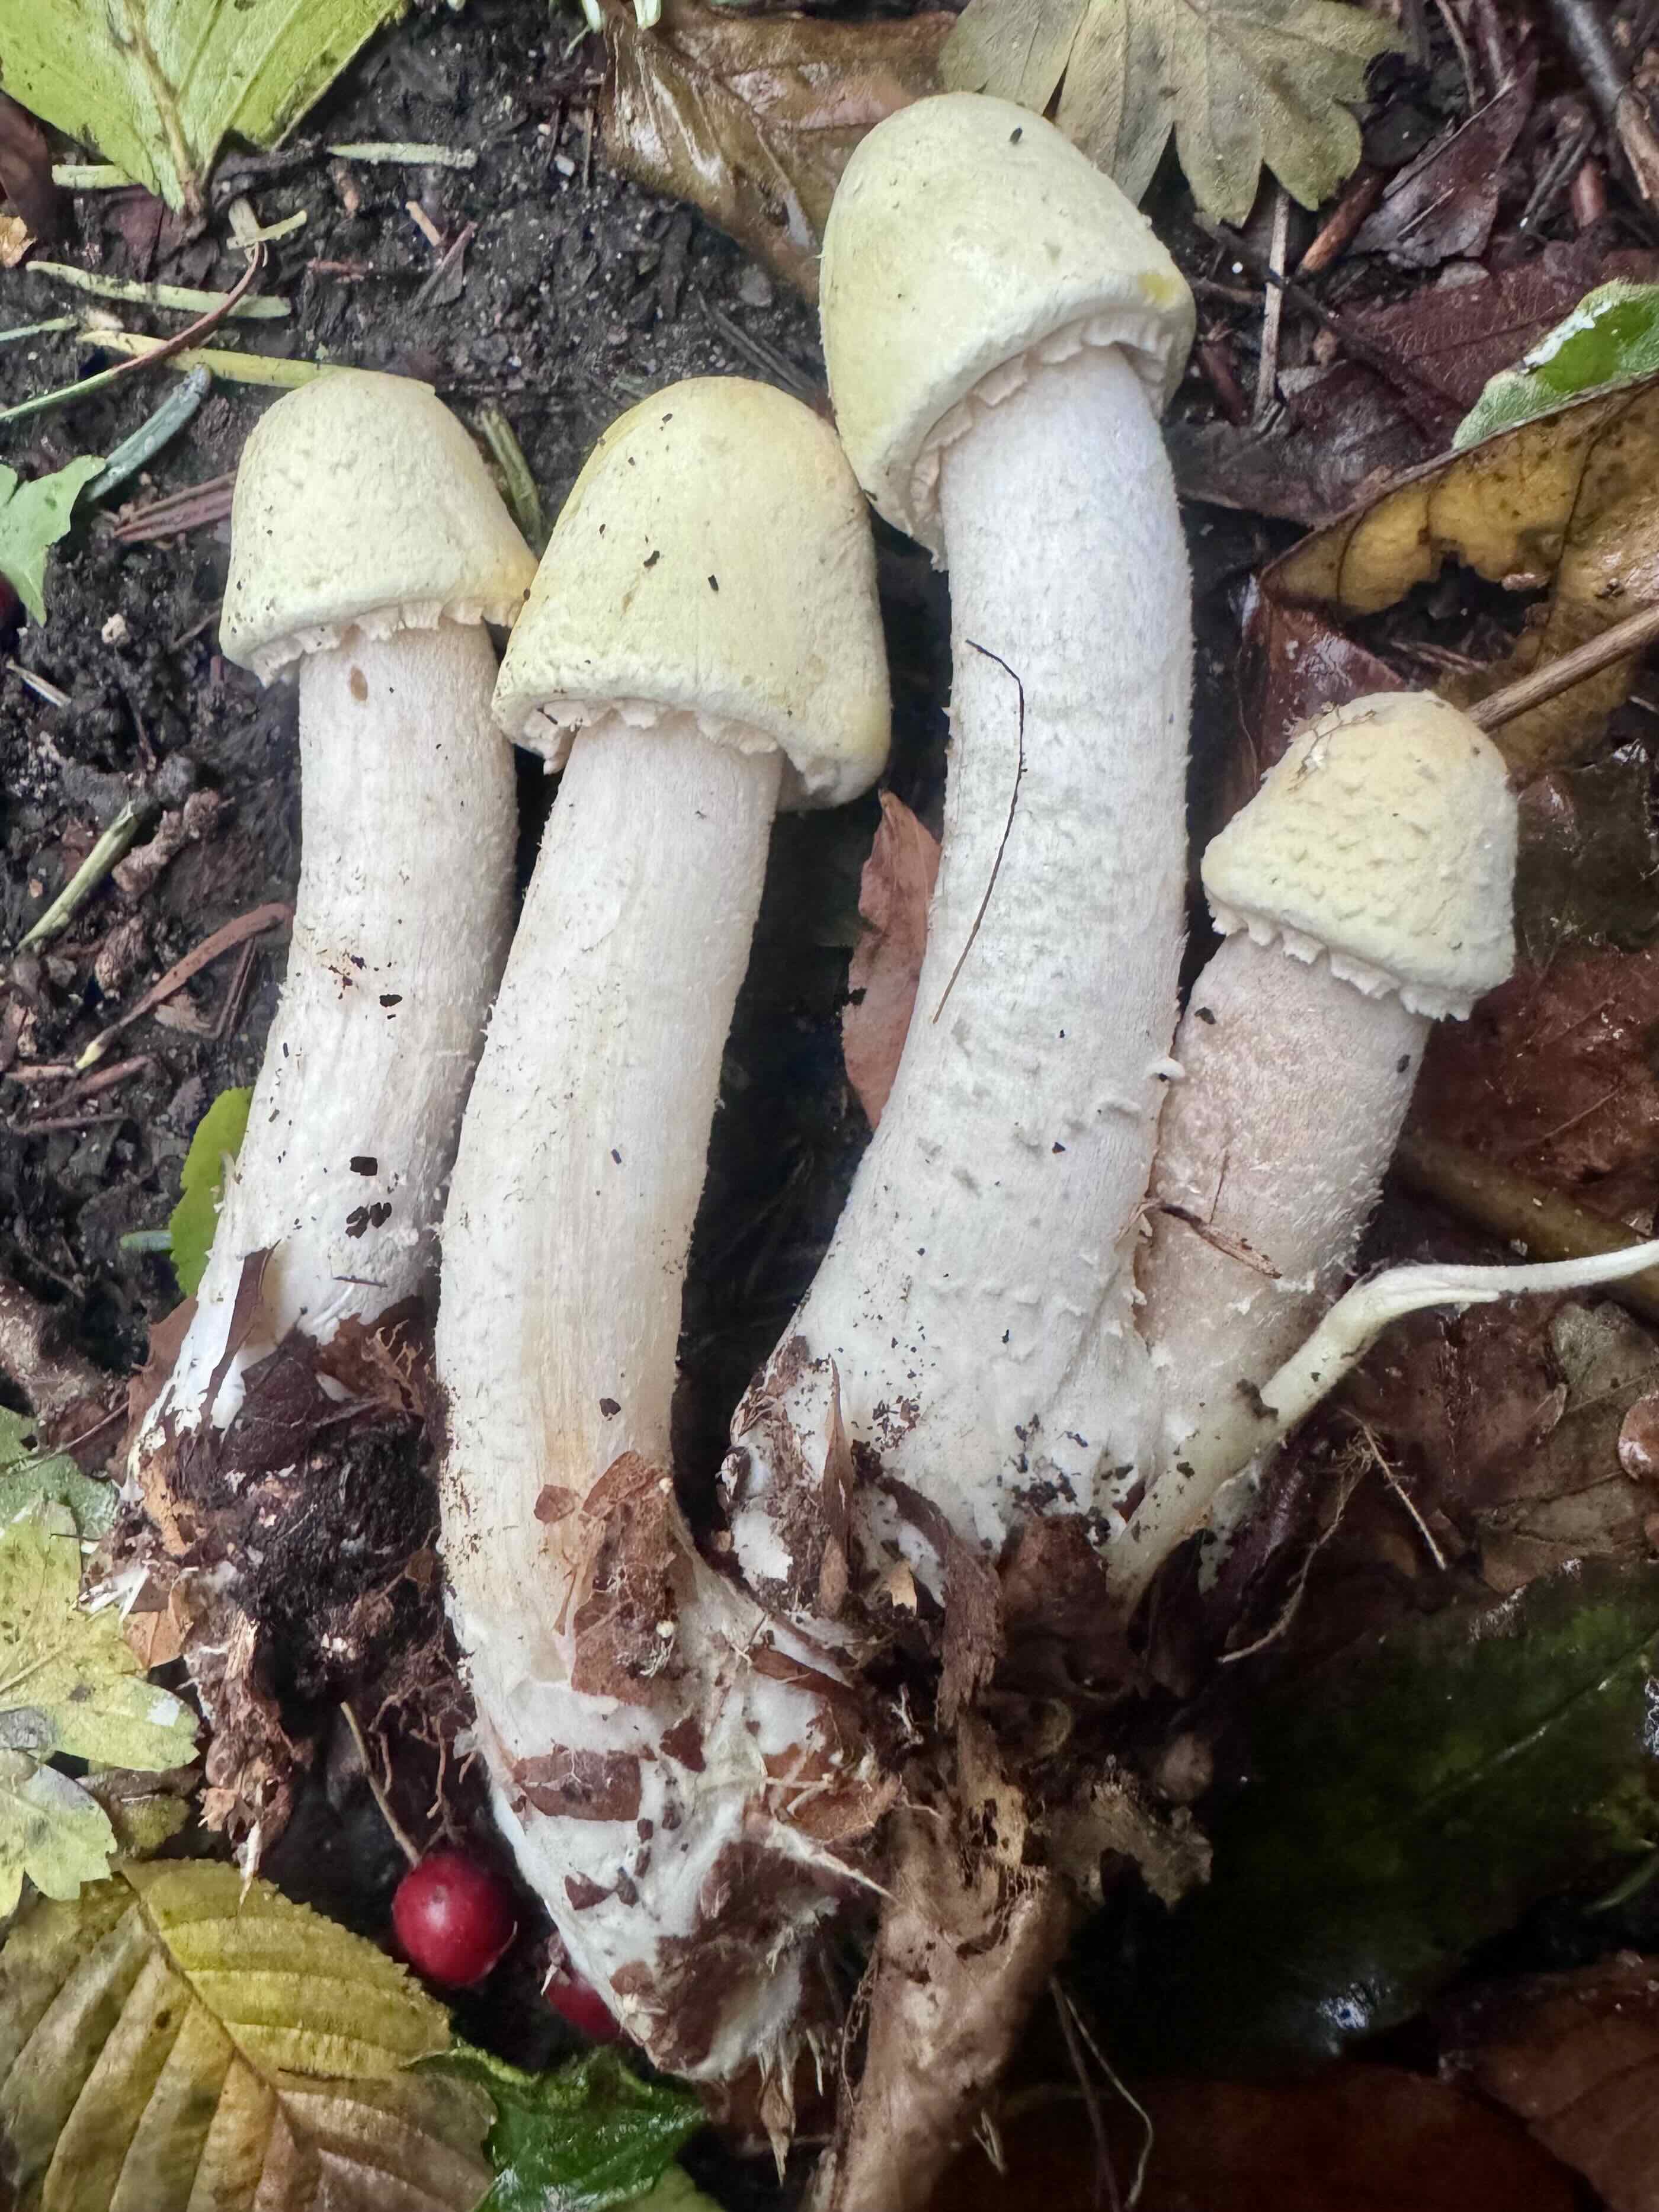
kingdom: Fungi
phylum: Basidiomycota
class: Agaricomycetes
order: Agaricales
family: Agaricaceae
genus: Agaricus
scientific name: Agaricus sylvicola
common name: skiveknoldet champignon
